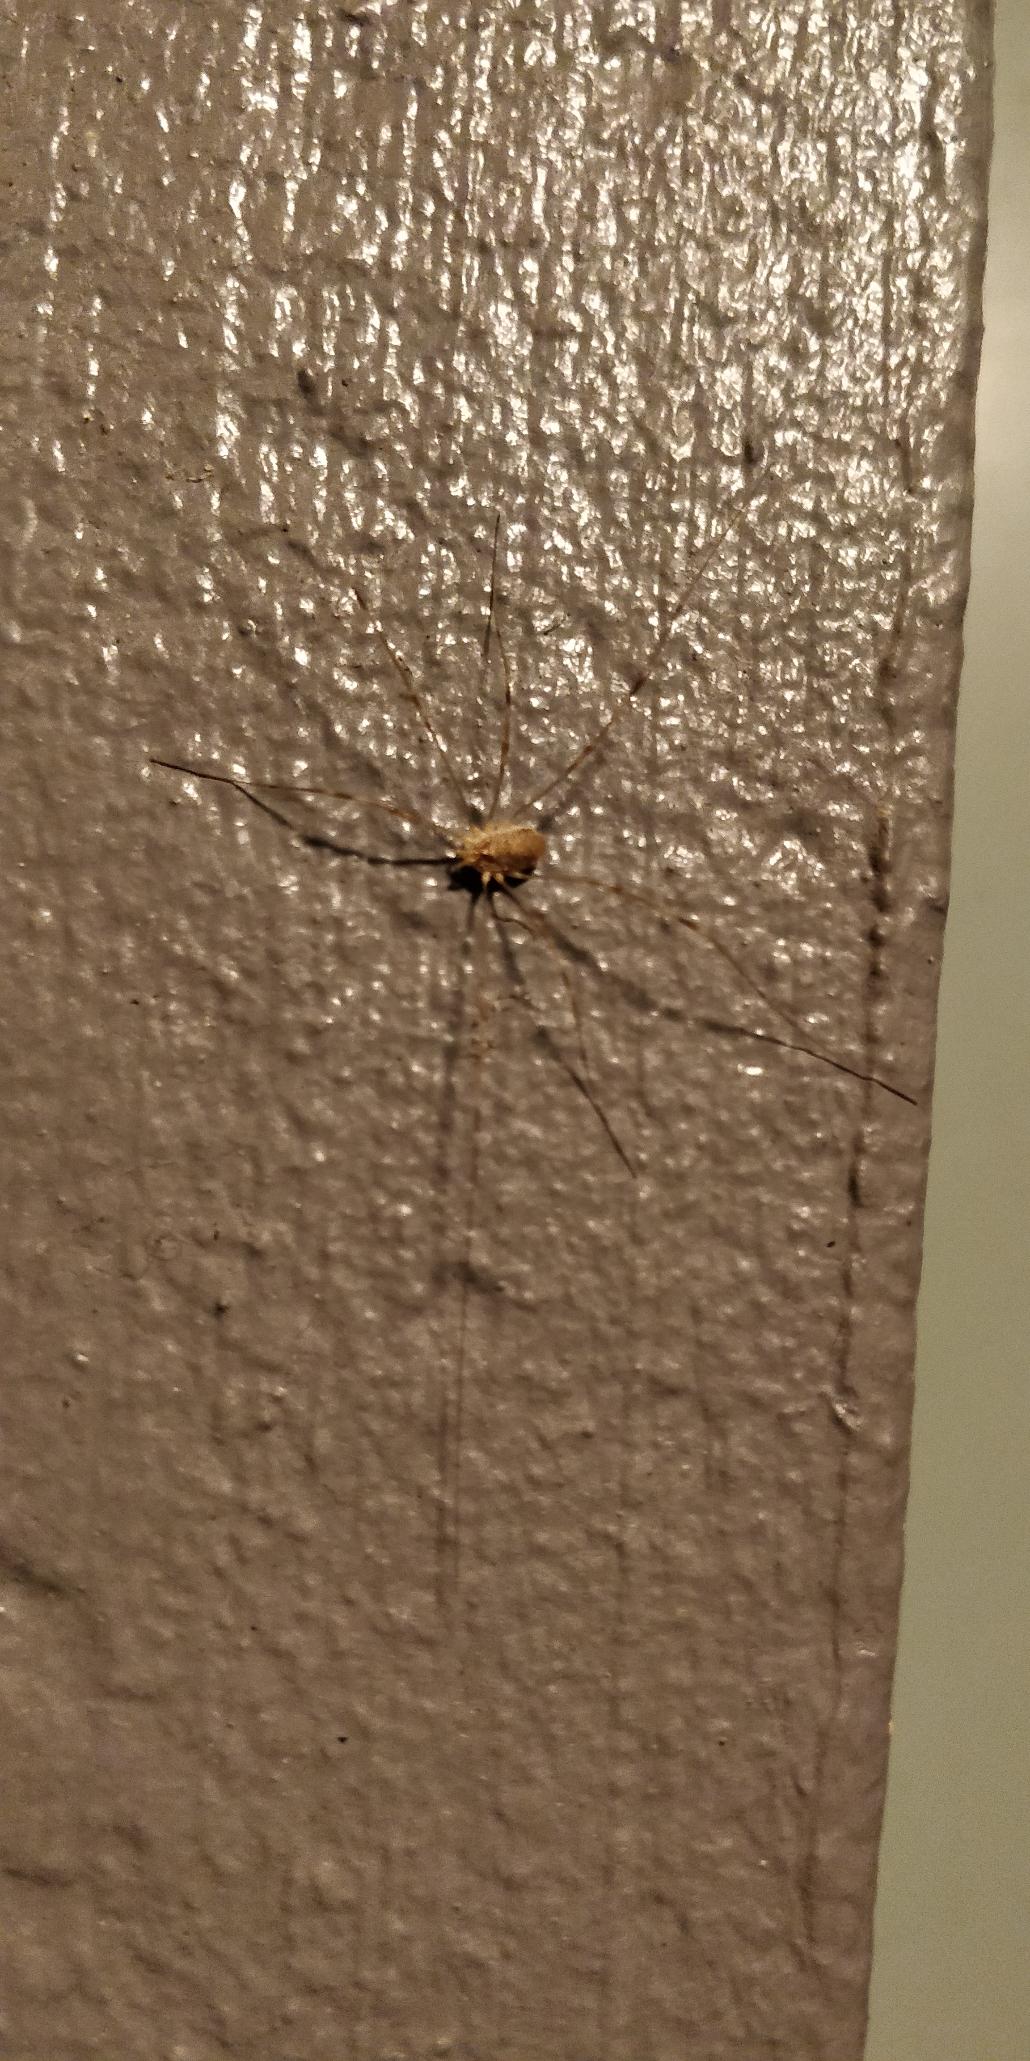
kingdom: Animalia
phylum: Arthropoda
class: Arachnida
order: Opiliones
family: Phalangiidae
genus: Opilio
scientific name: Opilio canestrinii
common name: Orange vægmejer
